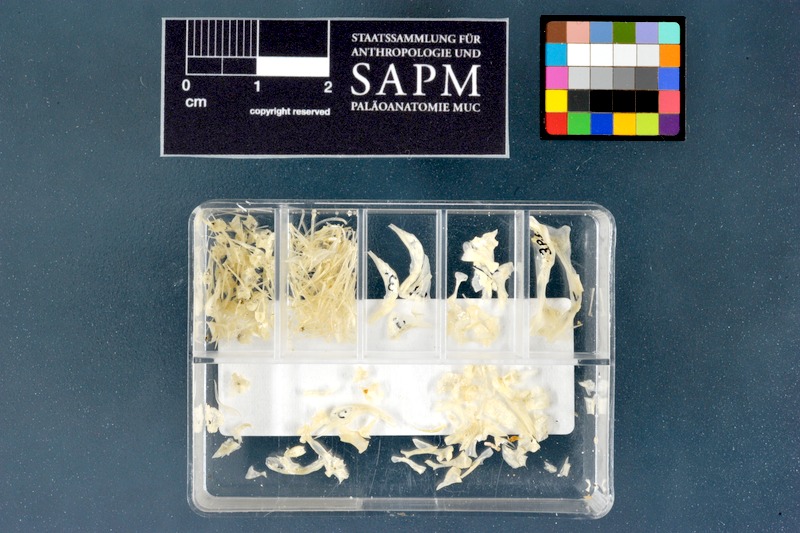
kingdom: Animalia
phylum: Chordata
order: Perciformes
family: Blenniidae
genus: Parablennius
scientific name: Parablennius sanguinolentus
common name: Black sea blenny
